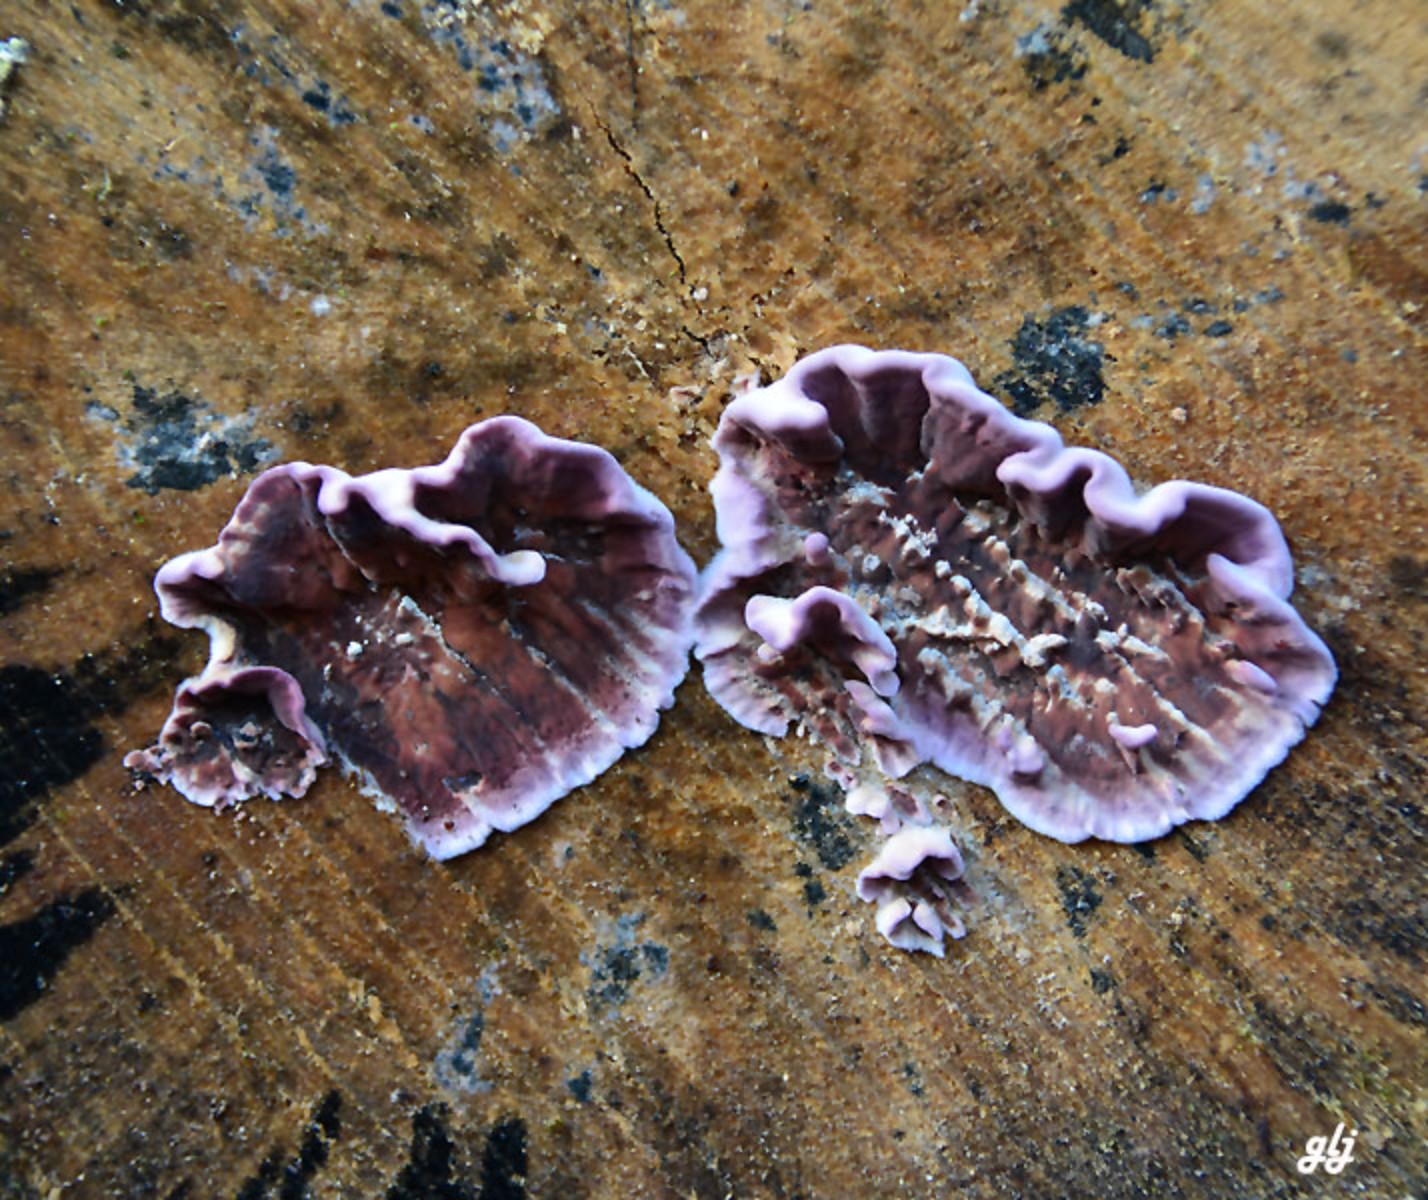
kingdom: Fungi
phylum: Basidiomycota
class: Agaricomycetes
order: Agaricales
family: Cyphellaceae
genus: Chondrostereum
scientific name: Chondrostereum purpureum
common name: purpurlædersvamp
